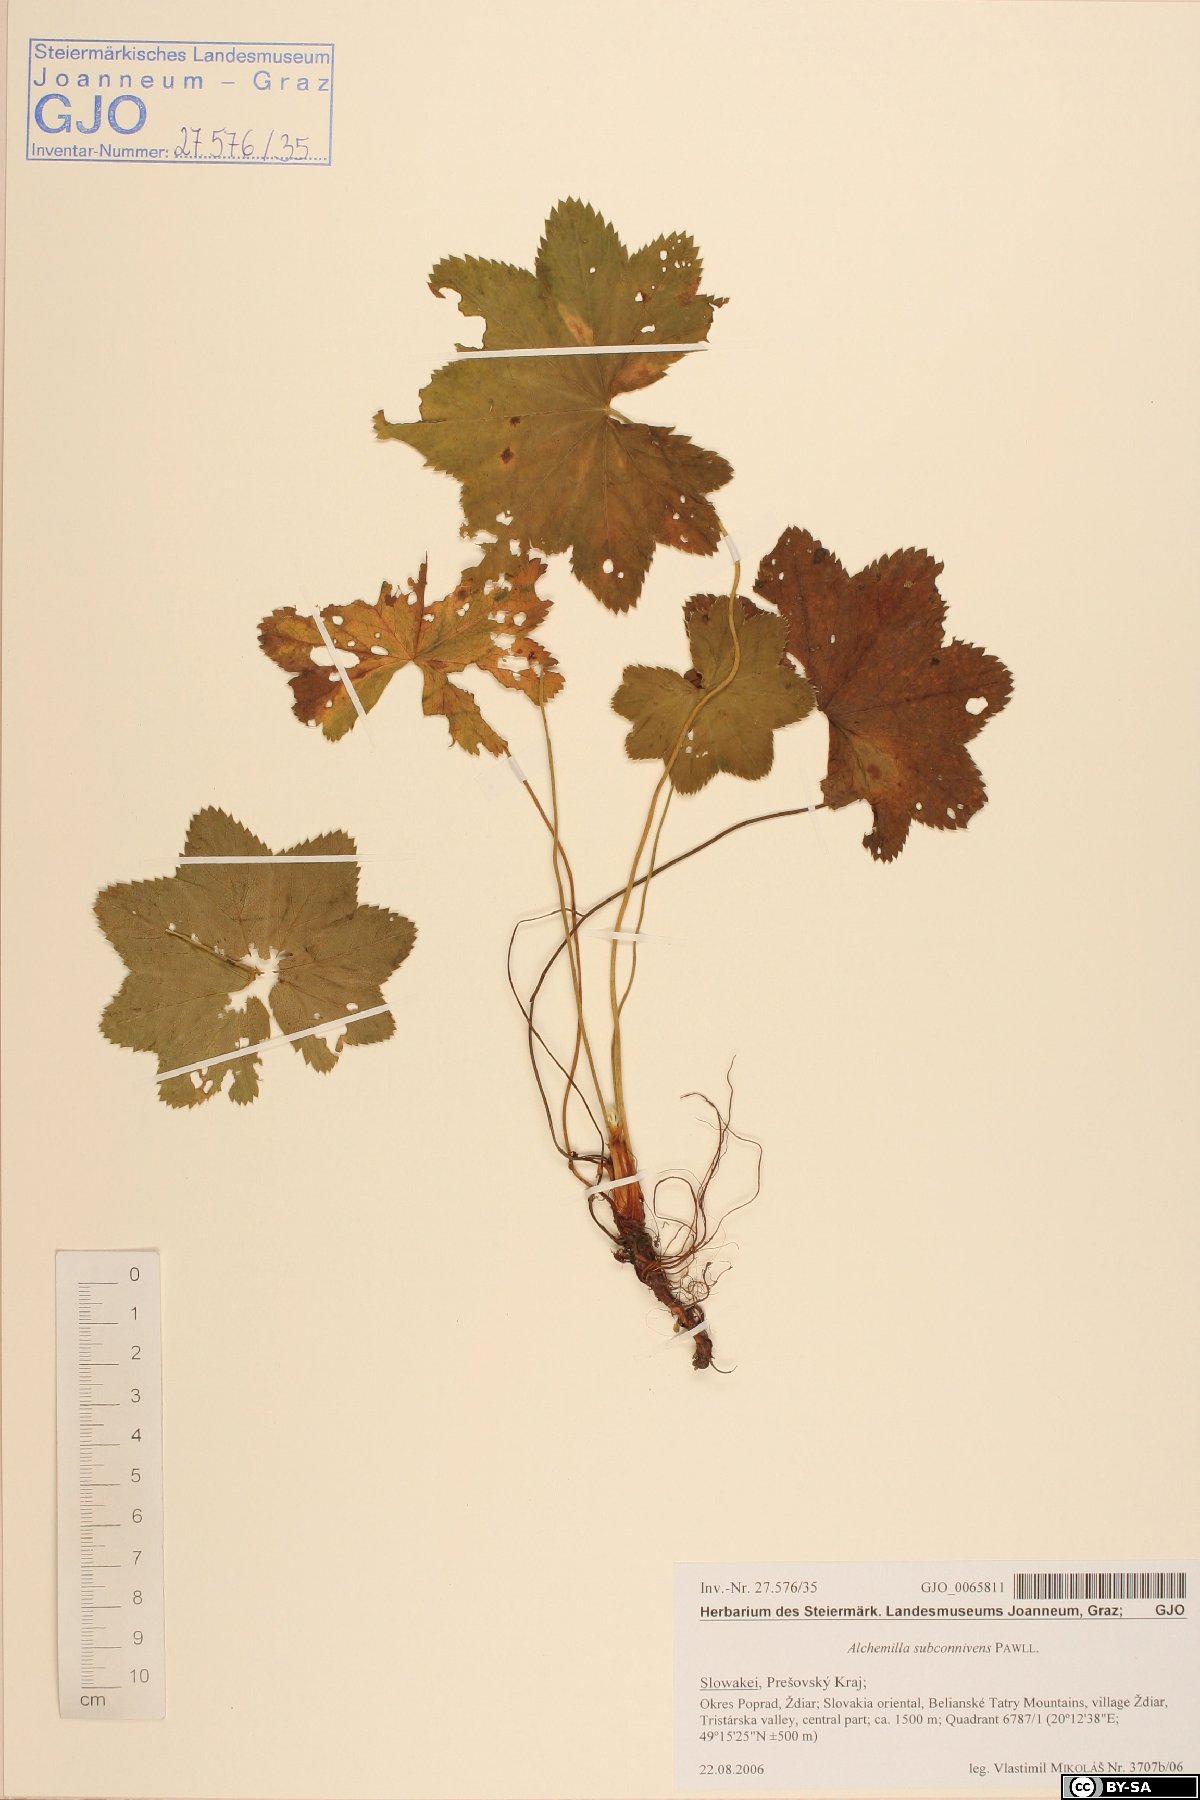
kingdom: Plantae
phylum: Tracheophyta
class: Magnoliopsida
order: Rosales
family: Rosaceae
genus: Alchemilla
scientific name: Alchemilla connivens
